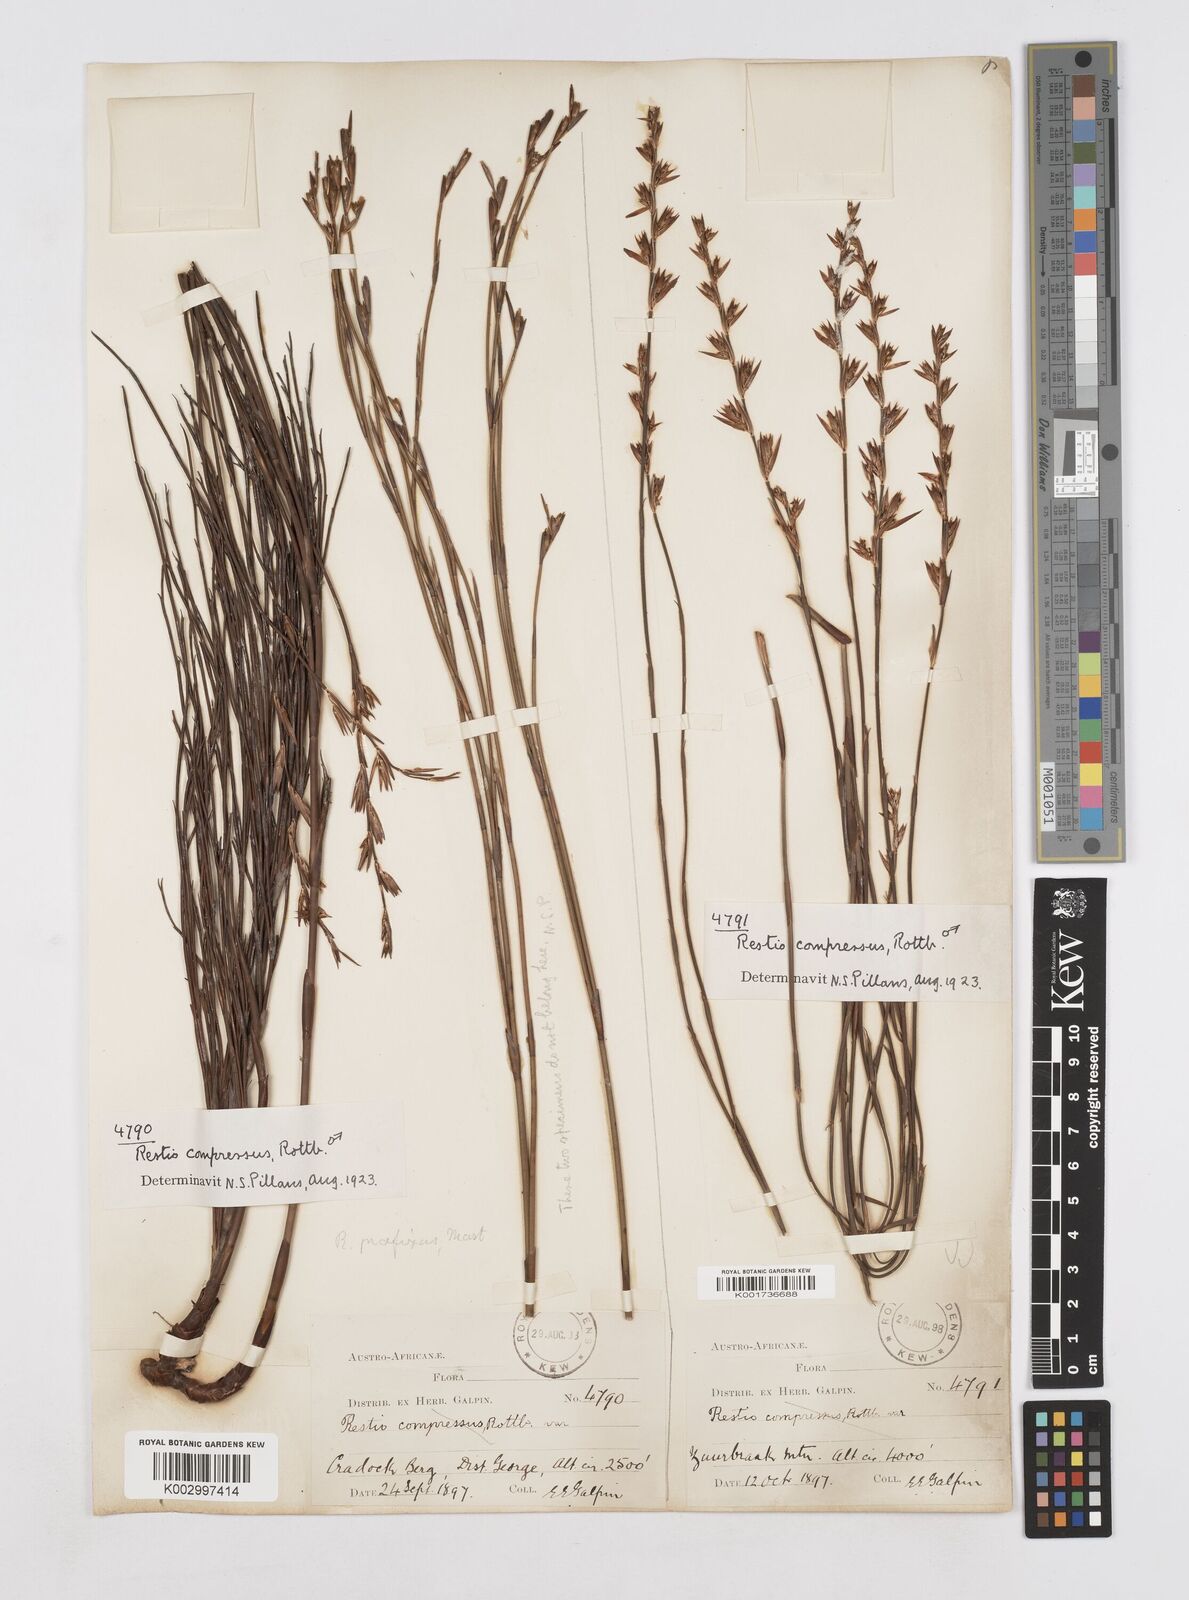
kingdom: Plantae
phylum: Tracheophyta
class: Liliopsida
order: Poales
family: Restionaceae
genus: Platycaulos
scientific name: Platycaulos compressus
